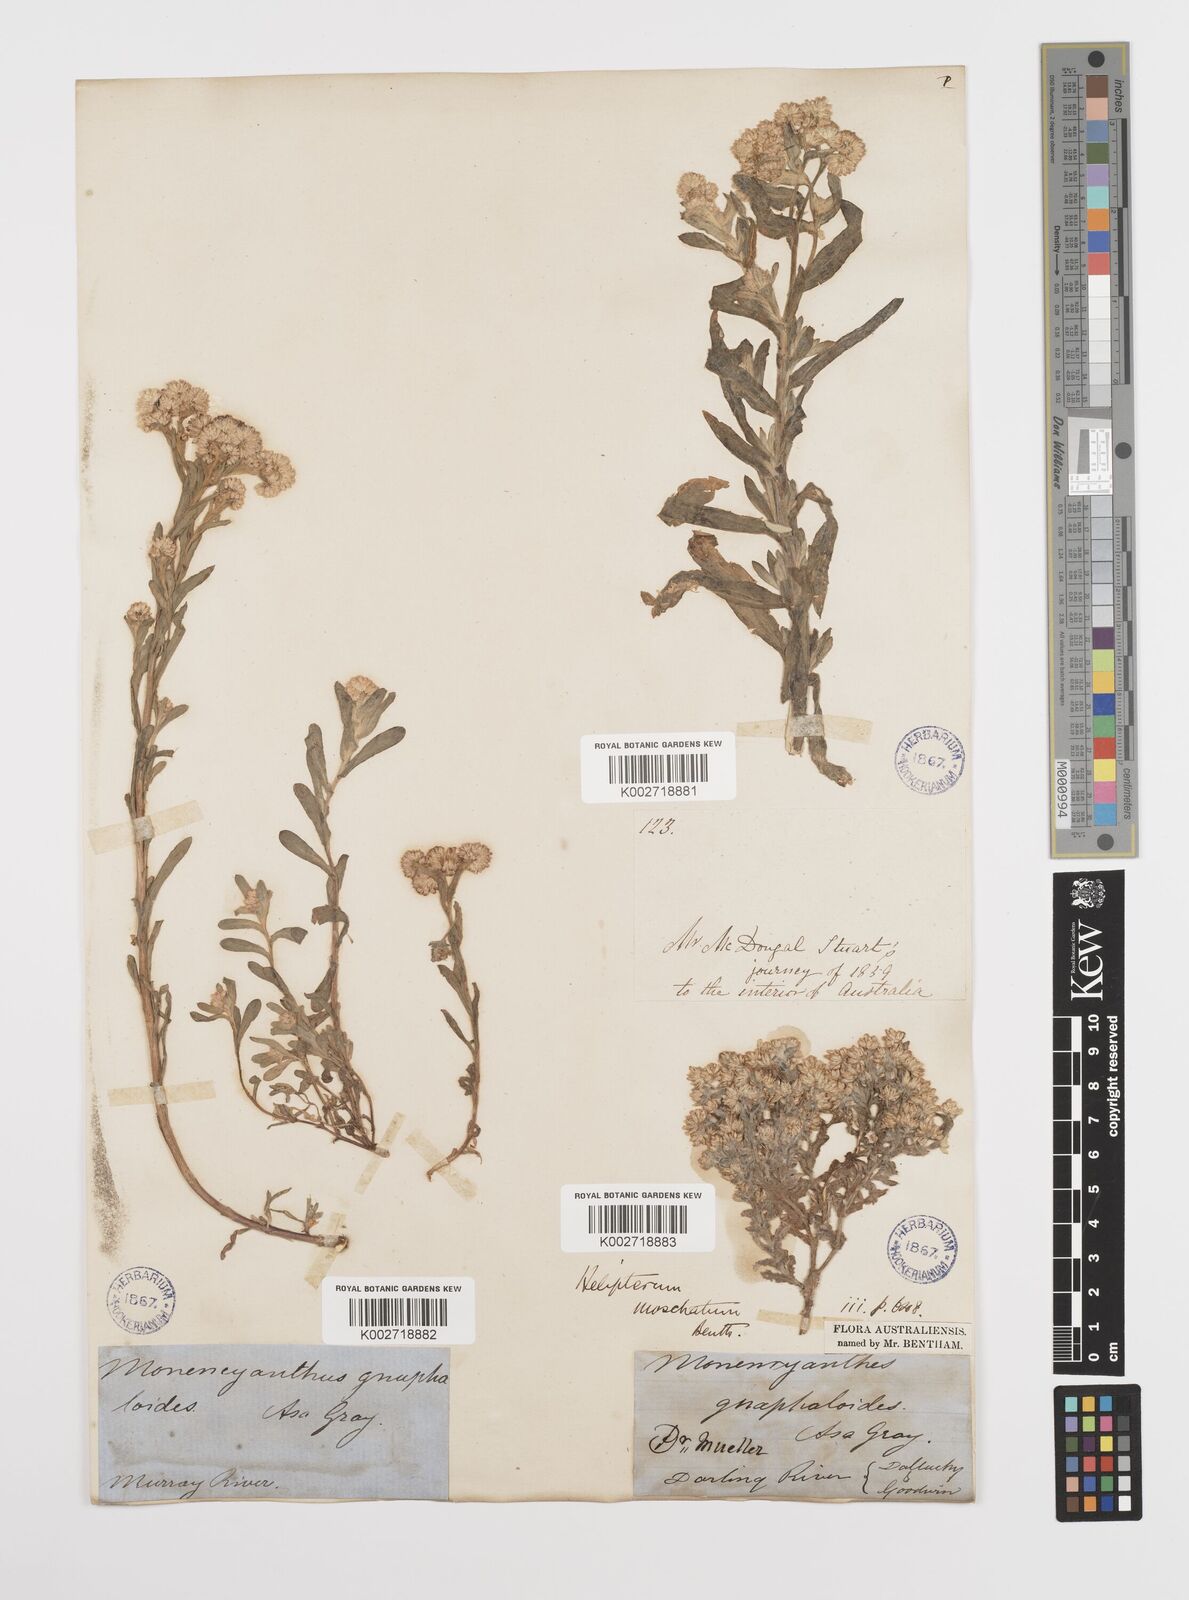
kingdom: Plantae
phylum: Tracheophyta
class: Magnoliopsida
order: Asterales
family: Asteraceae
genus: Rhodanthe
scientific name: Rhodanthe moschata
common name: Musk sunray
